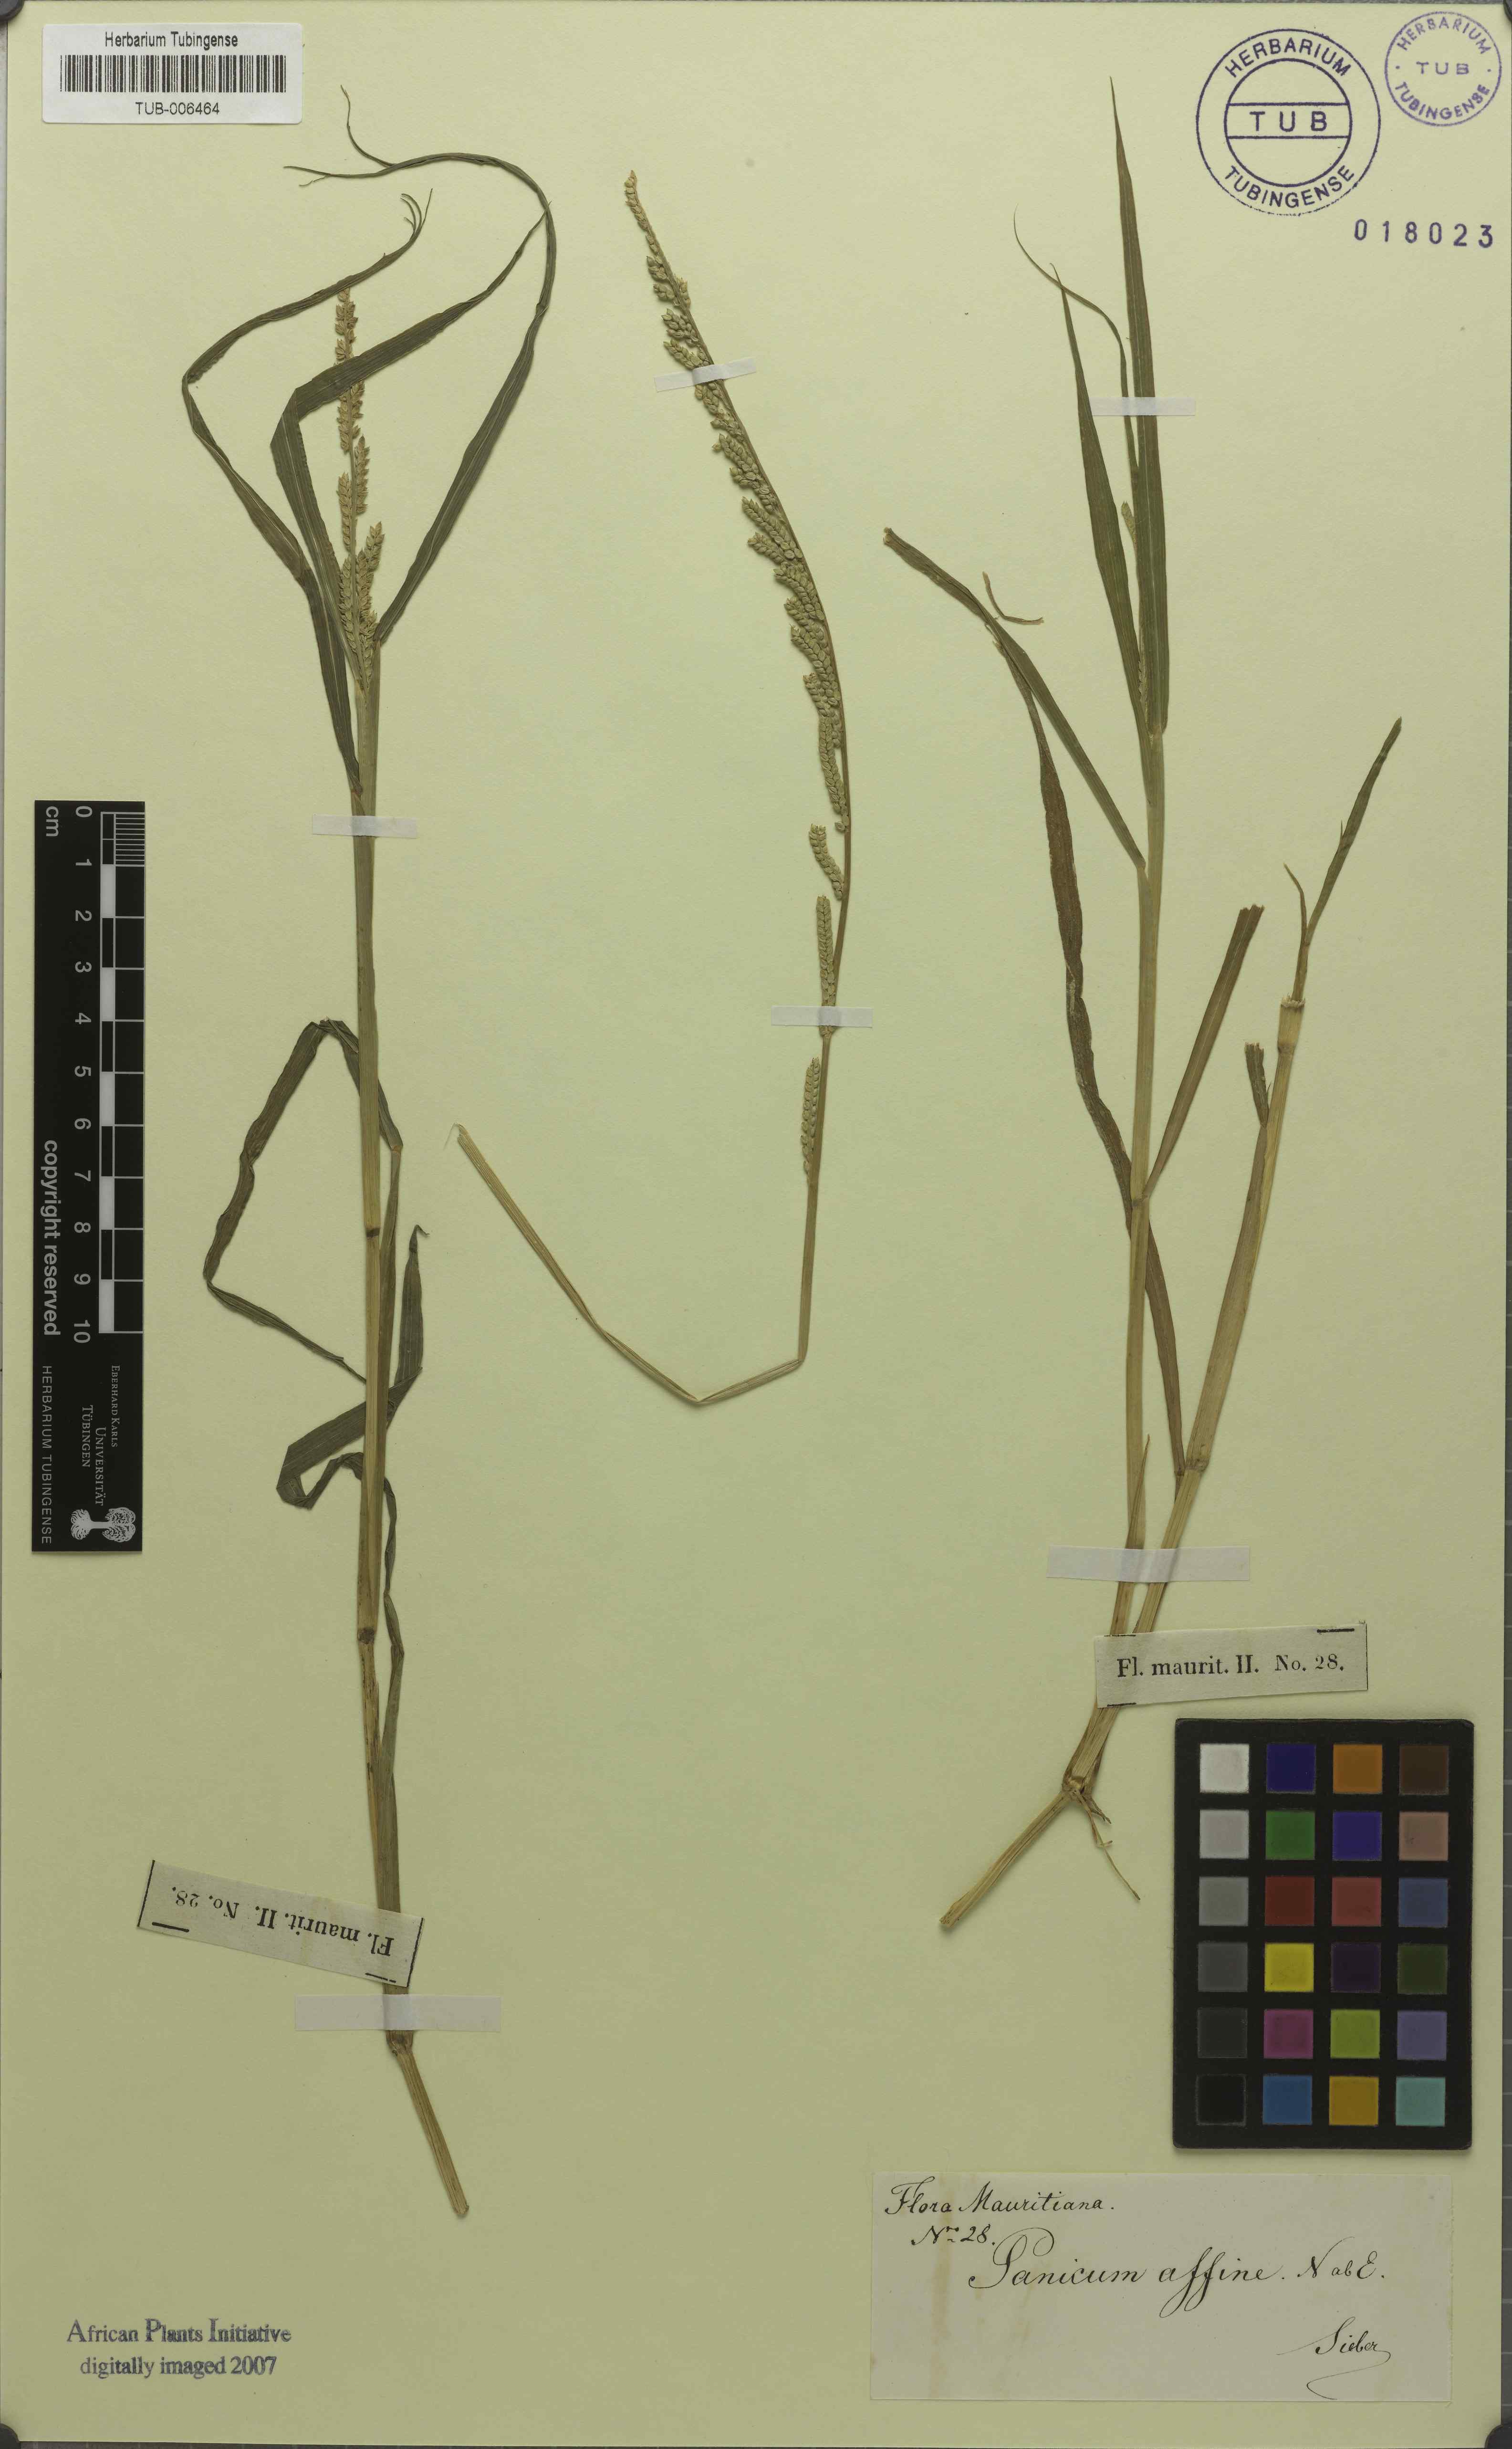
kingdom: Plantae
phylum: Tracheophyta
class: Liliopsida
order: Poales
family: Poaceae
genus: Setaria
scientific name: Setaria geminata
